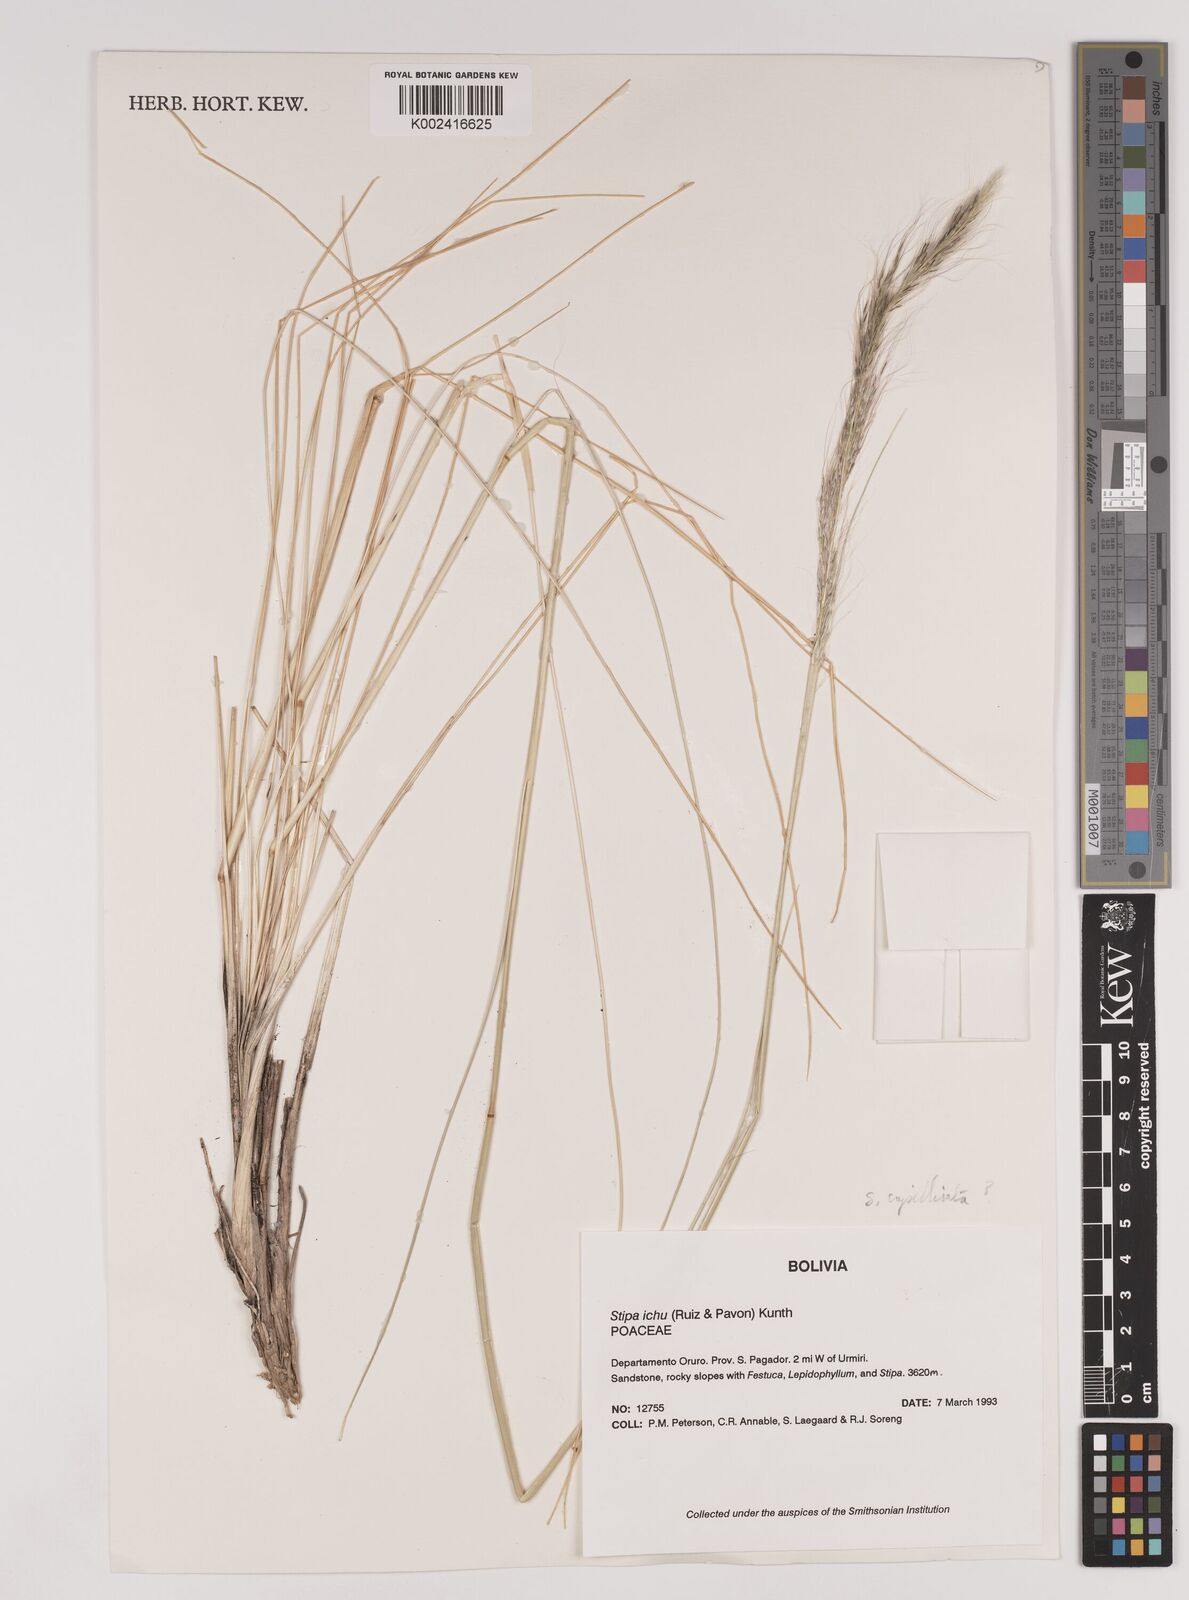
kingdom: Plantae
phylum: Tracheophyta
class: Liliopsida
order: Poales
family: Poaceae
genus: Jarava
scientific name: Jarava leptostachya
